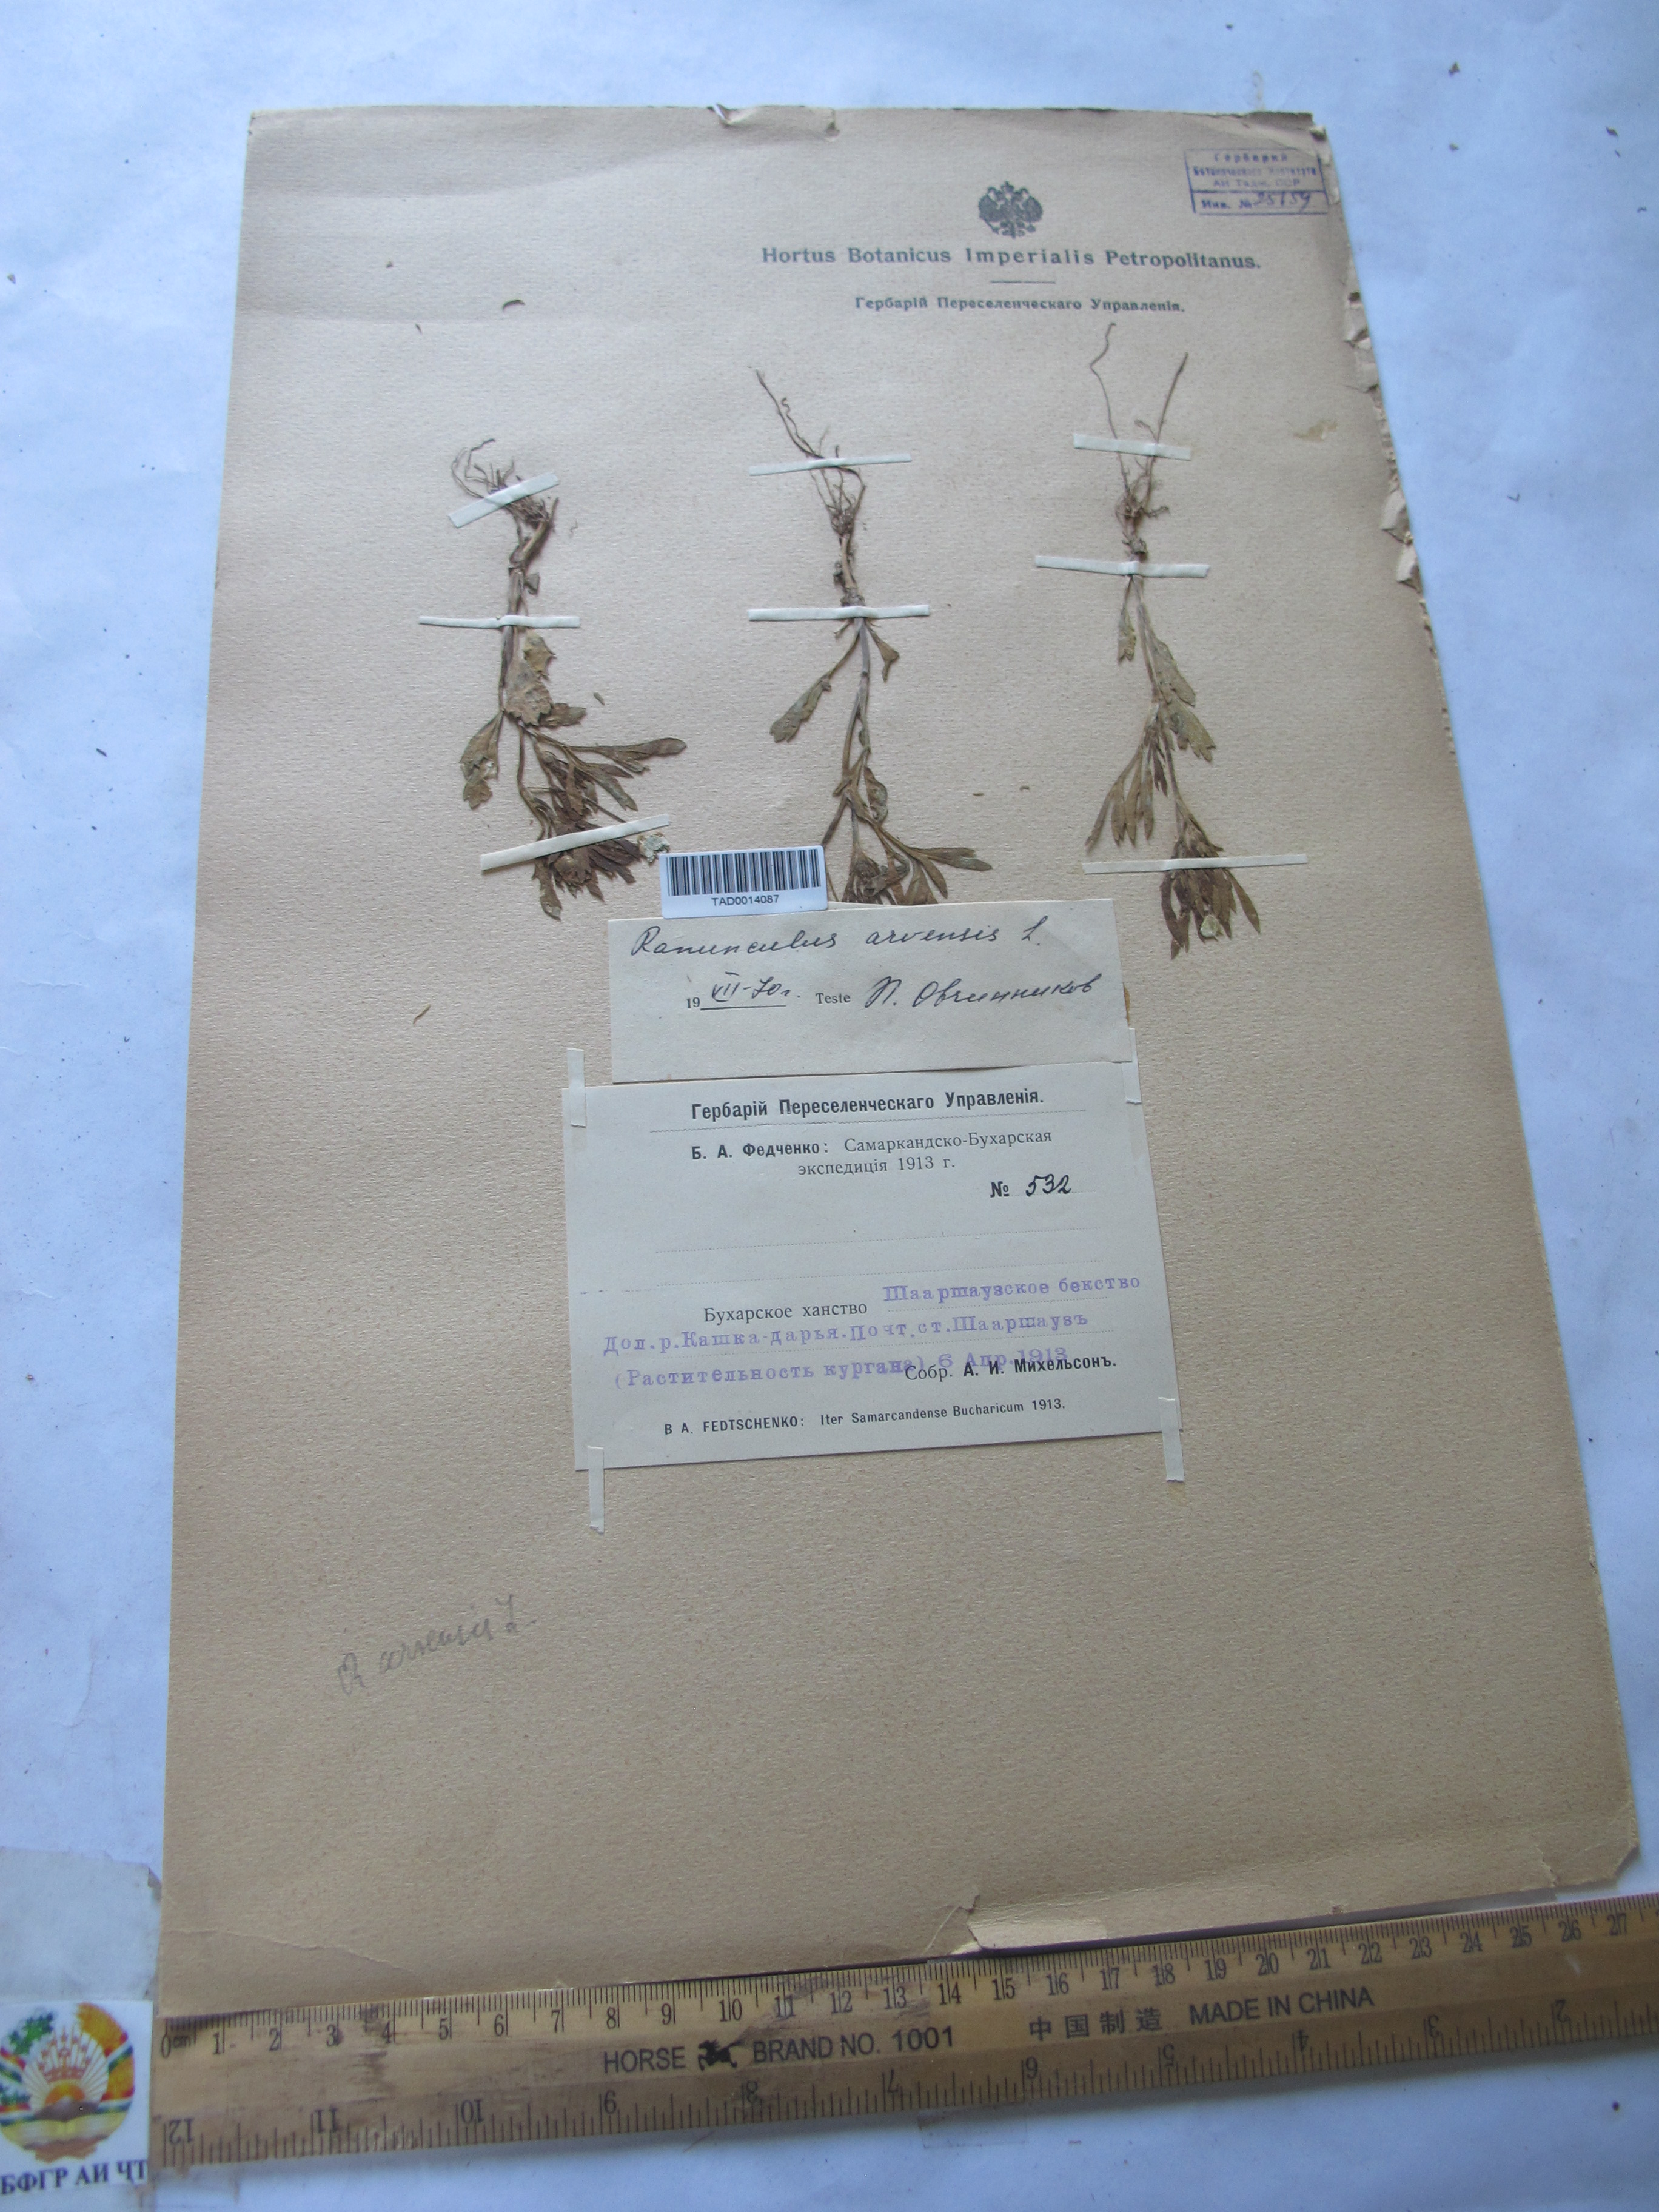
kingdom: Plantae
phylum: Tracheophyta
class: Magnoliopsida
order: Ranunculales
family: Ranunculaceae
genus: Ranunculus
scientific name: Ranunculus arvensis
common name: Corn buttercup
